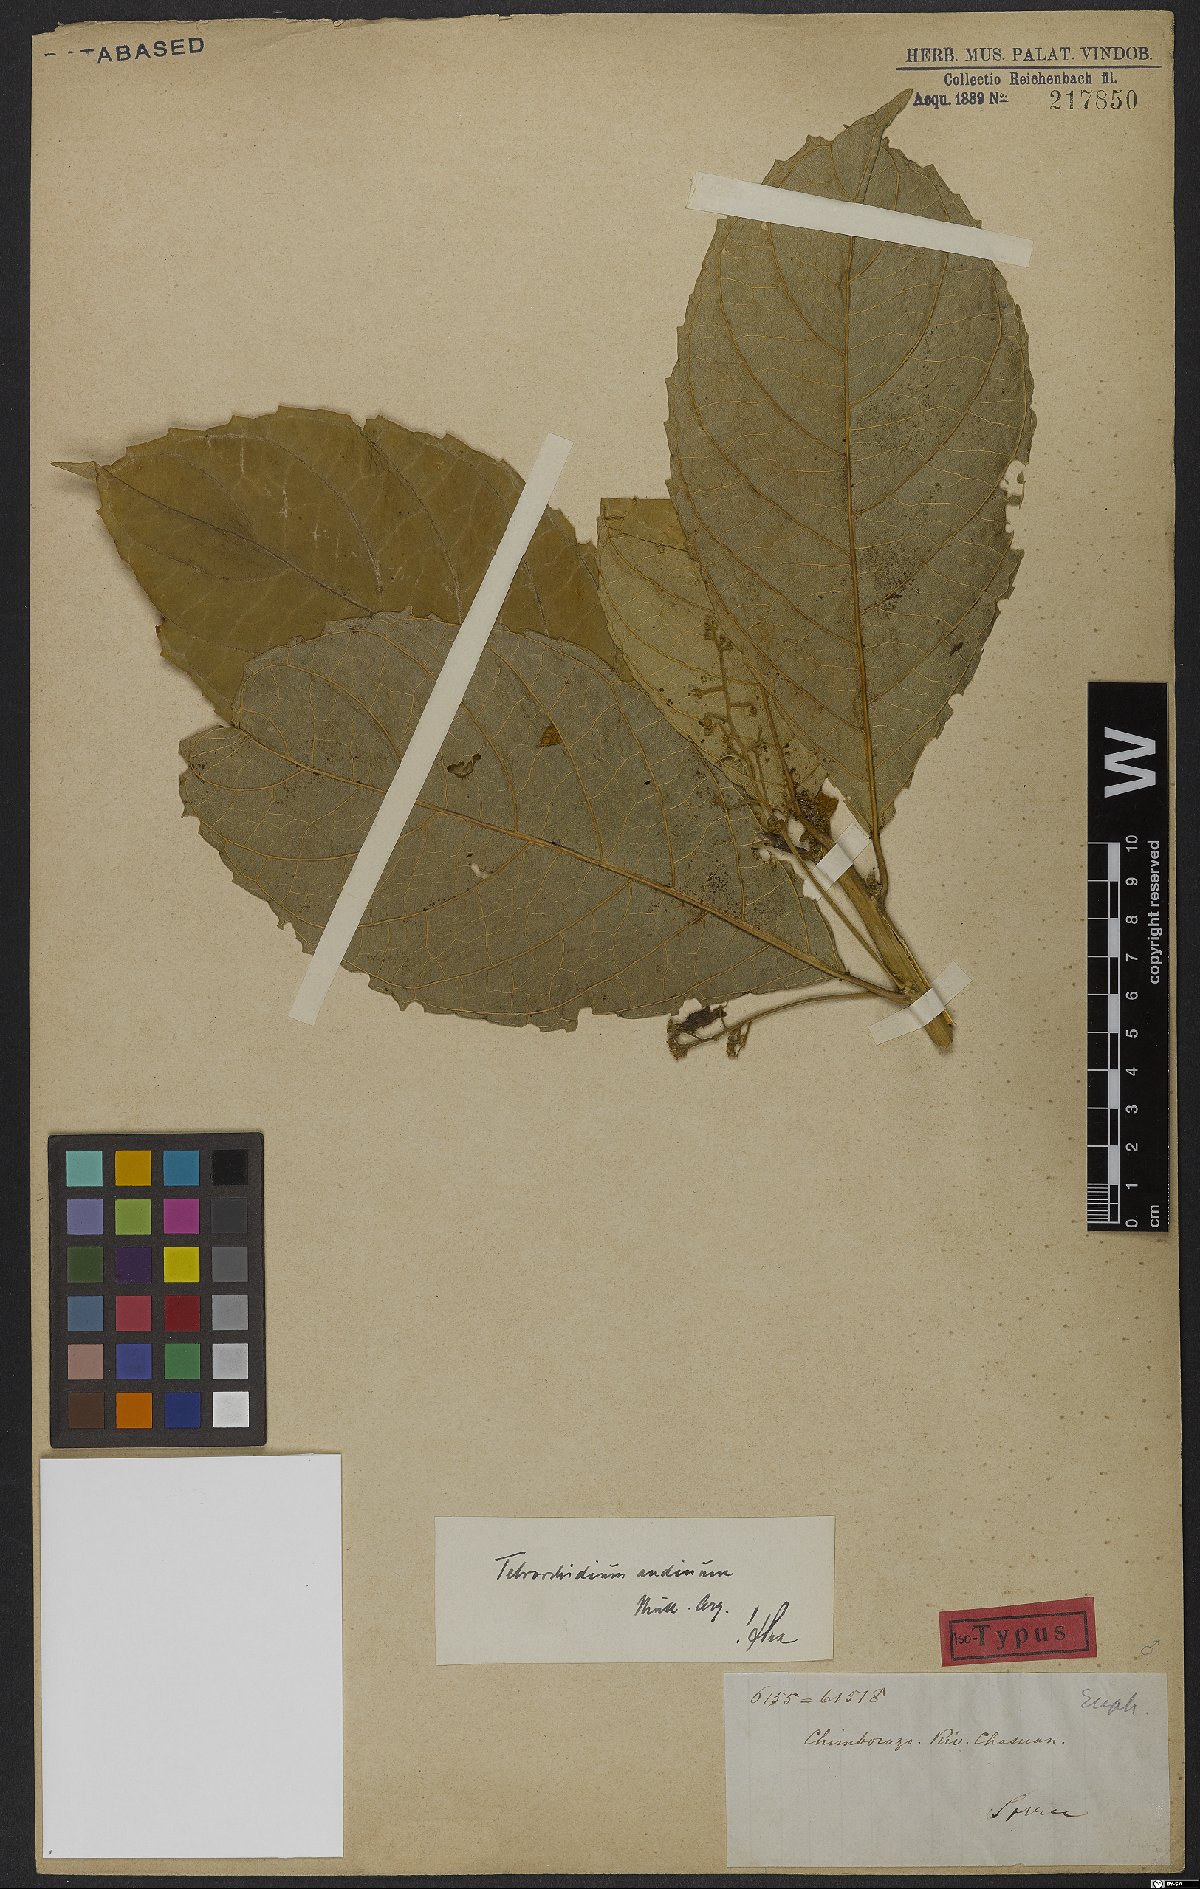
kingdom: Plantae
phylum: Tracheophyta
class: Magnoliopsida
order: Malpighiales
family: Euphorbiaceae
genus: Tetrorchidium
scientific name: Tetrorchidium andinum
